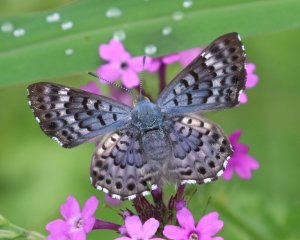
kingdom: Animalia
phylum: Arthropoda
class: Insecta
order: Lepidoptera
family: Riodinidae
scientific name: Riodinidae
